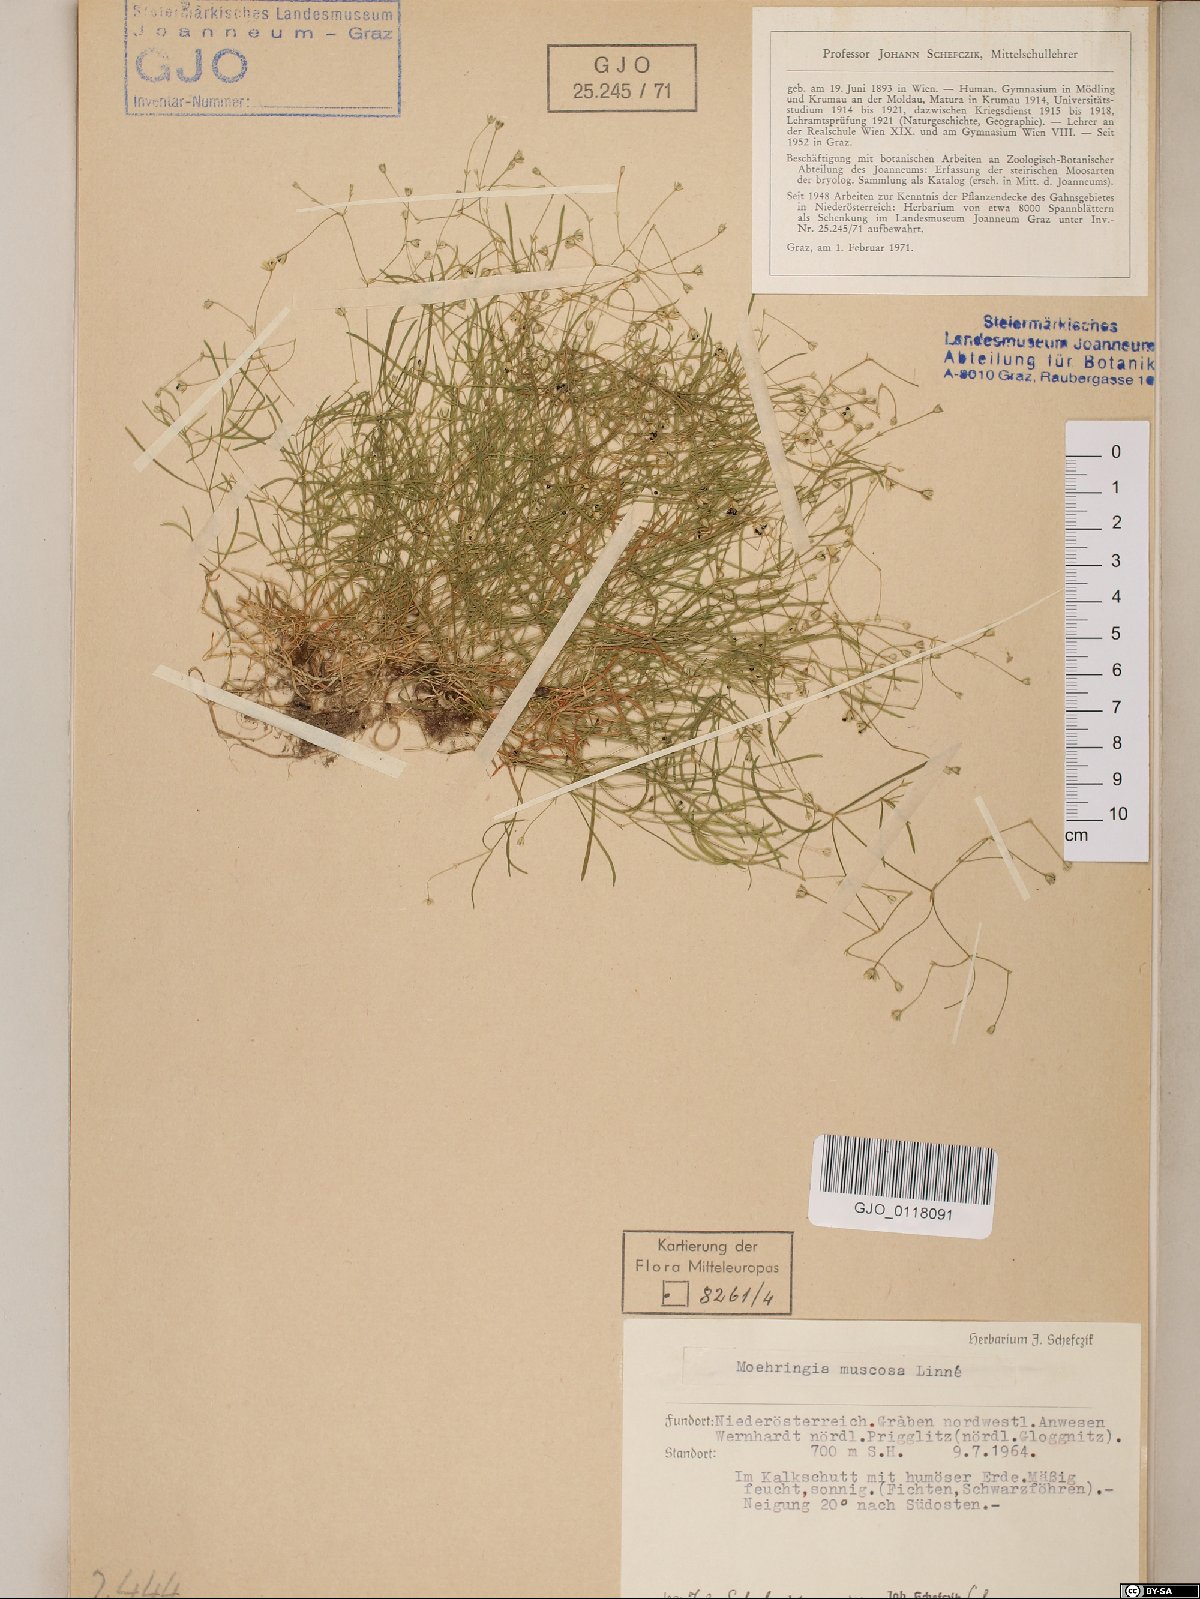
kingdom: Plantae
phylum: Tracheophyta
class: Magnoliopsida
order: Caryophyllales
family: Caryophyllaceae
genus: Moehringia
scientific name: Moehringia muscosa
